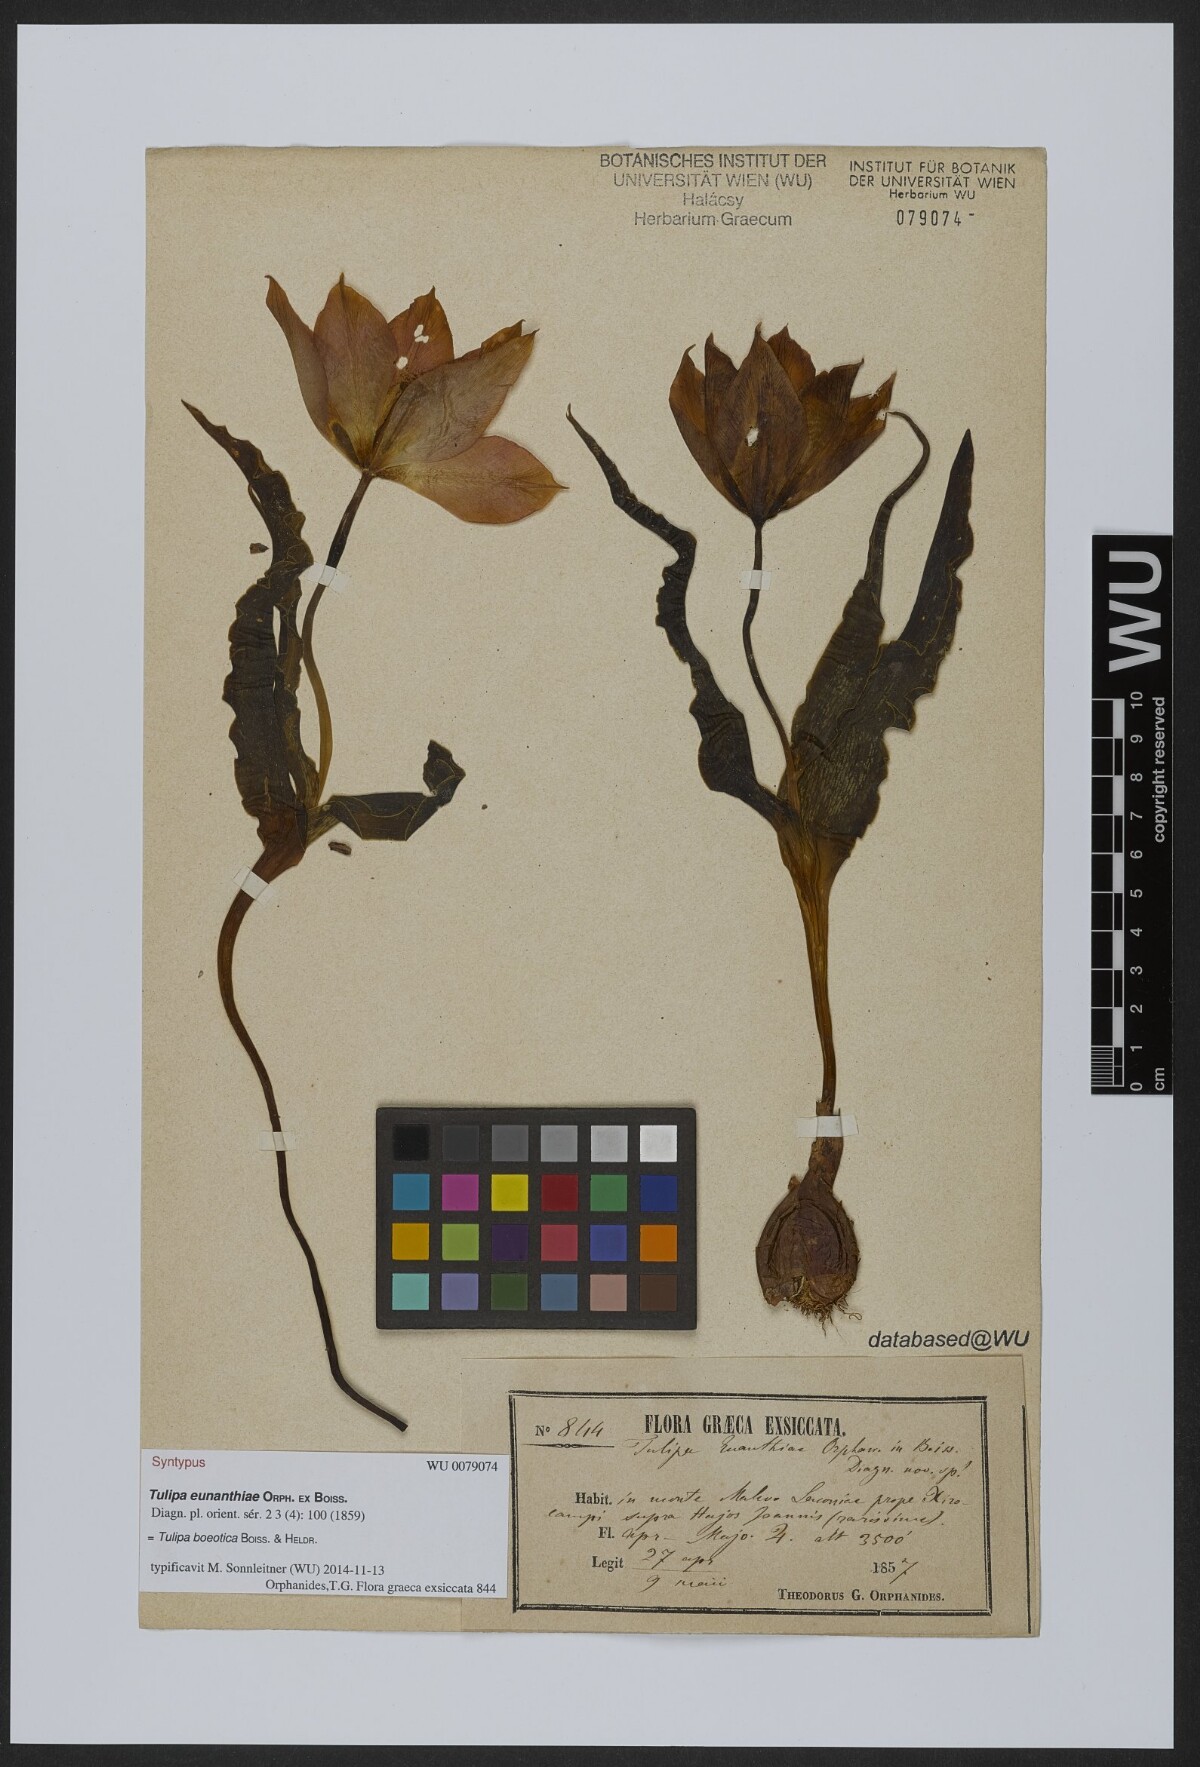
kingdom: Plantae
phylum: Tracheophyta
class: Liliopsida
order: Liliales
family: Liliaceae
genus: Tulipa
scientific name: Tulipa eunanthiae
